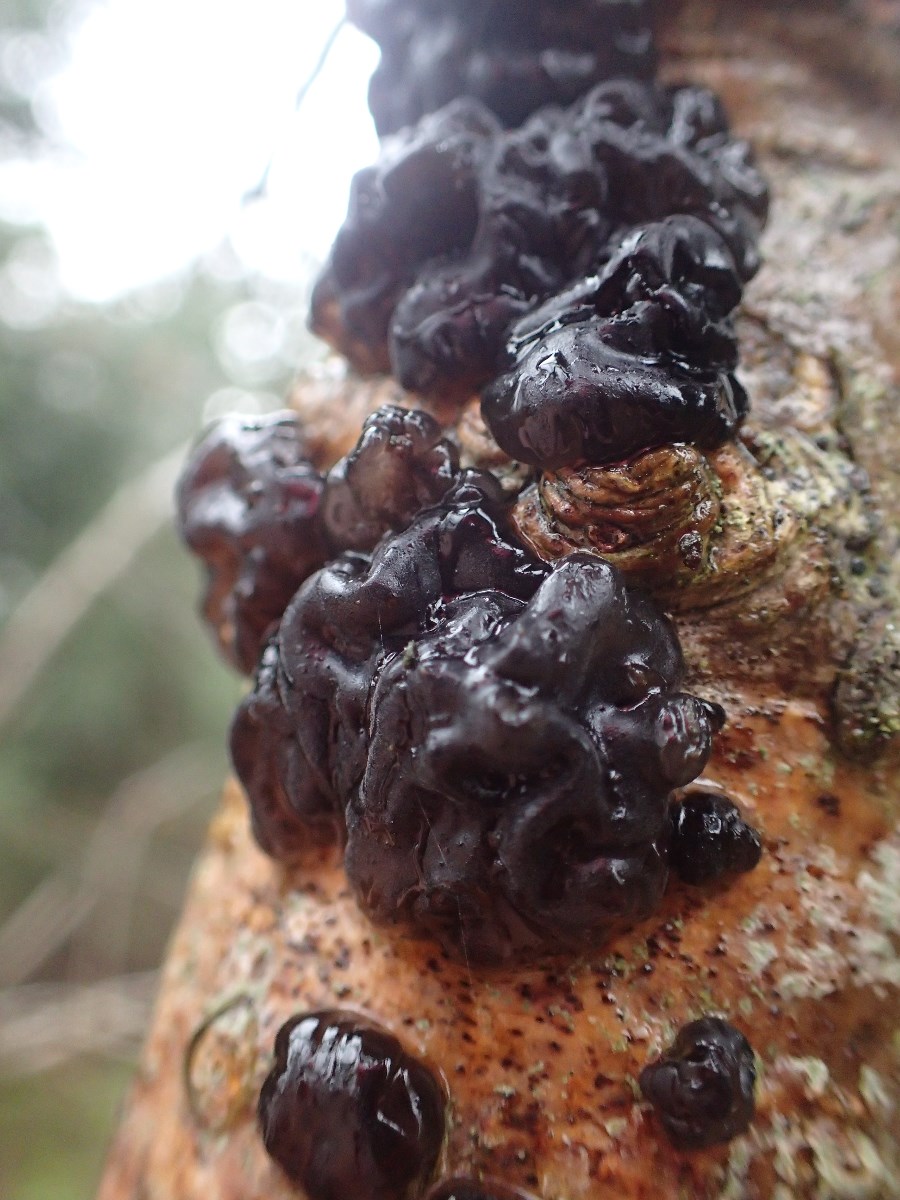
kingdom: Fungi
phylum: Basidiomycota
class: Agaricomycetes
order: Auriculariales
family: Auriculariaceae
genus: Exidia
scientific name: Exidia nigricans
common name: almindelig bævretop
